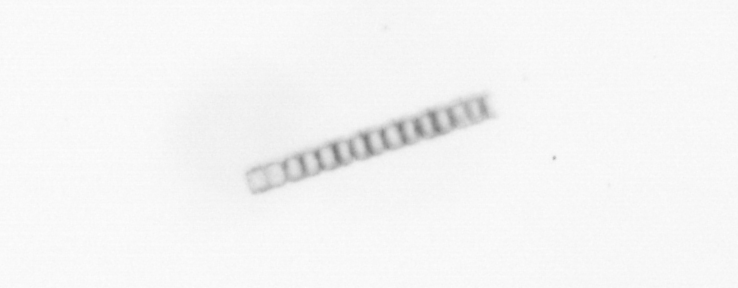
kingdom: Chromista
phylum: Ochrophyta
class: Bacillariophyceae
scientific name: Bacillariophyceae
